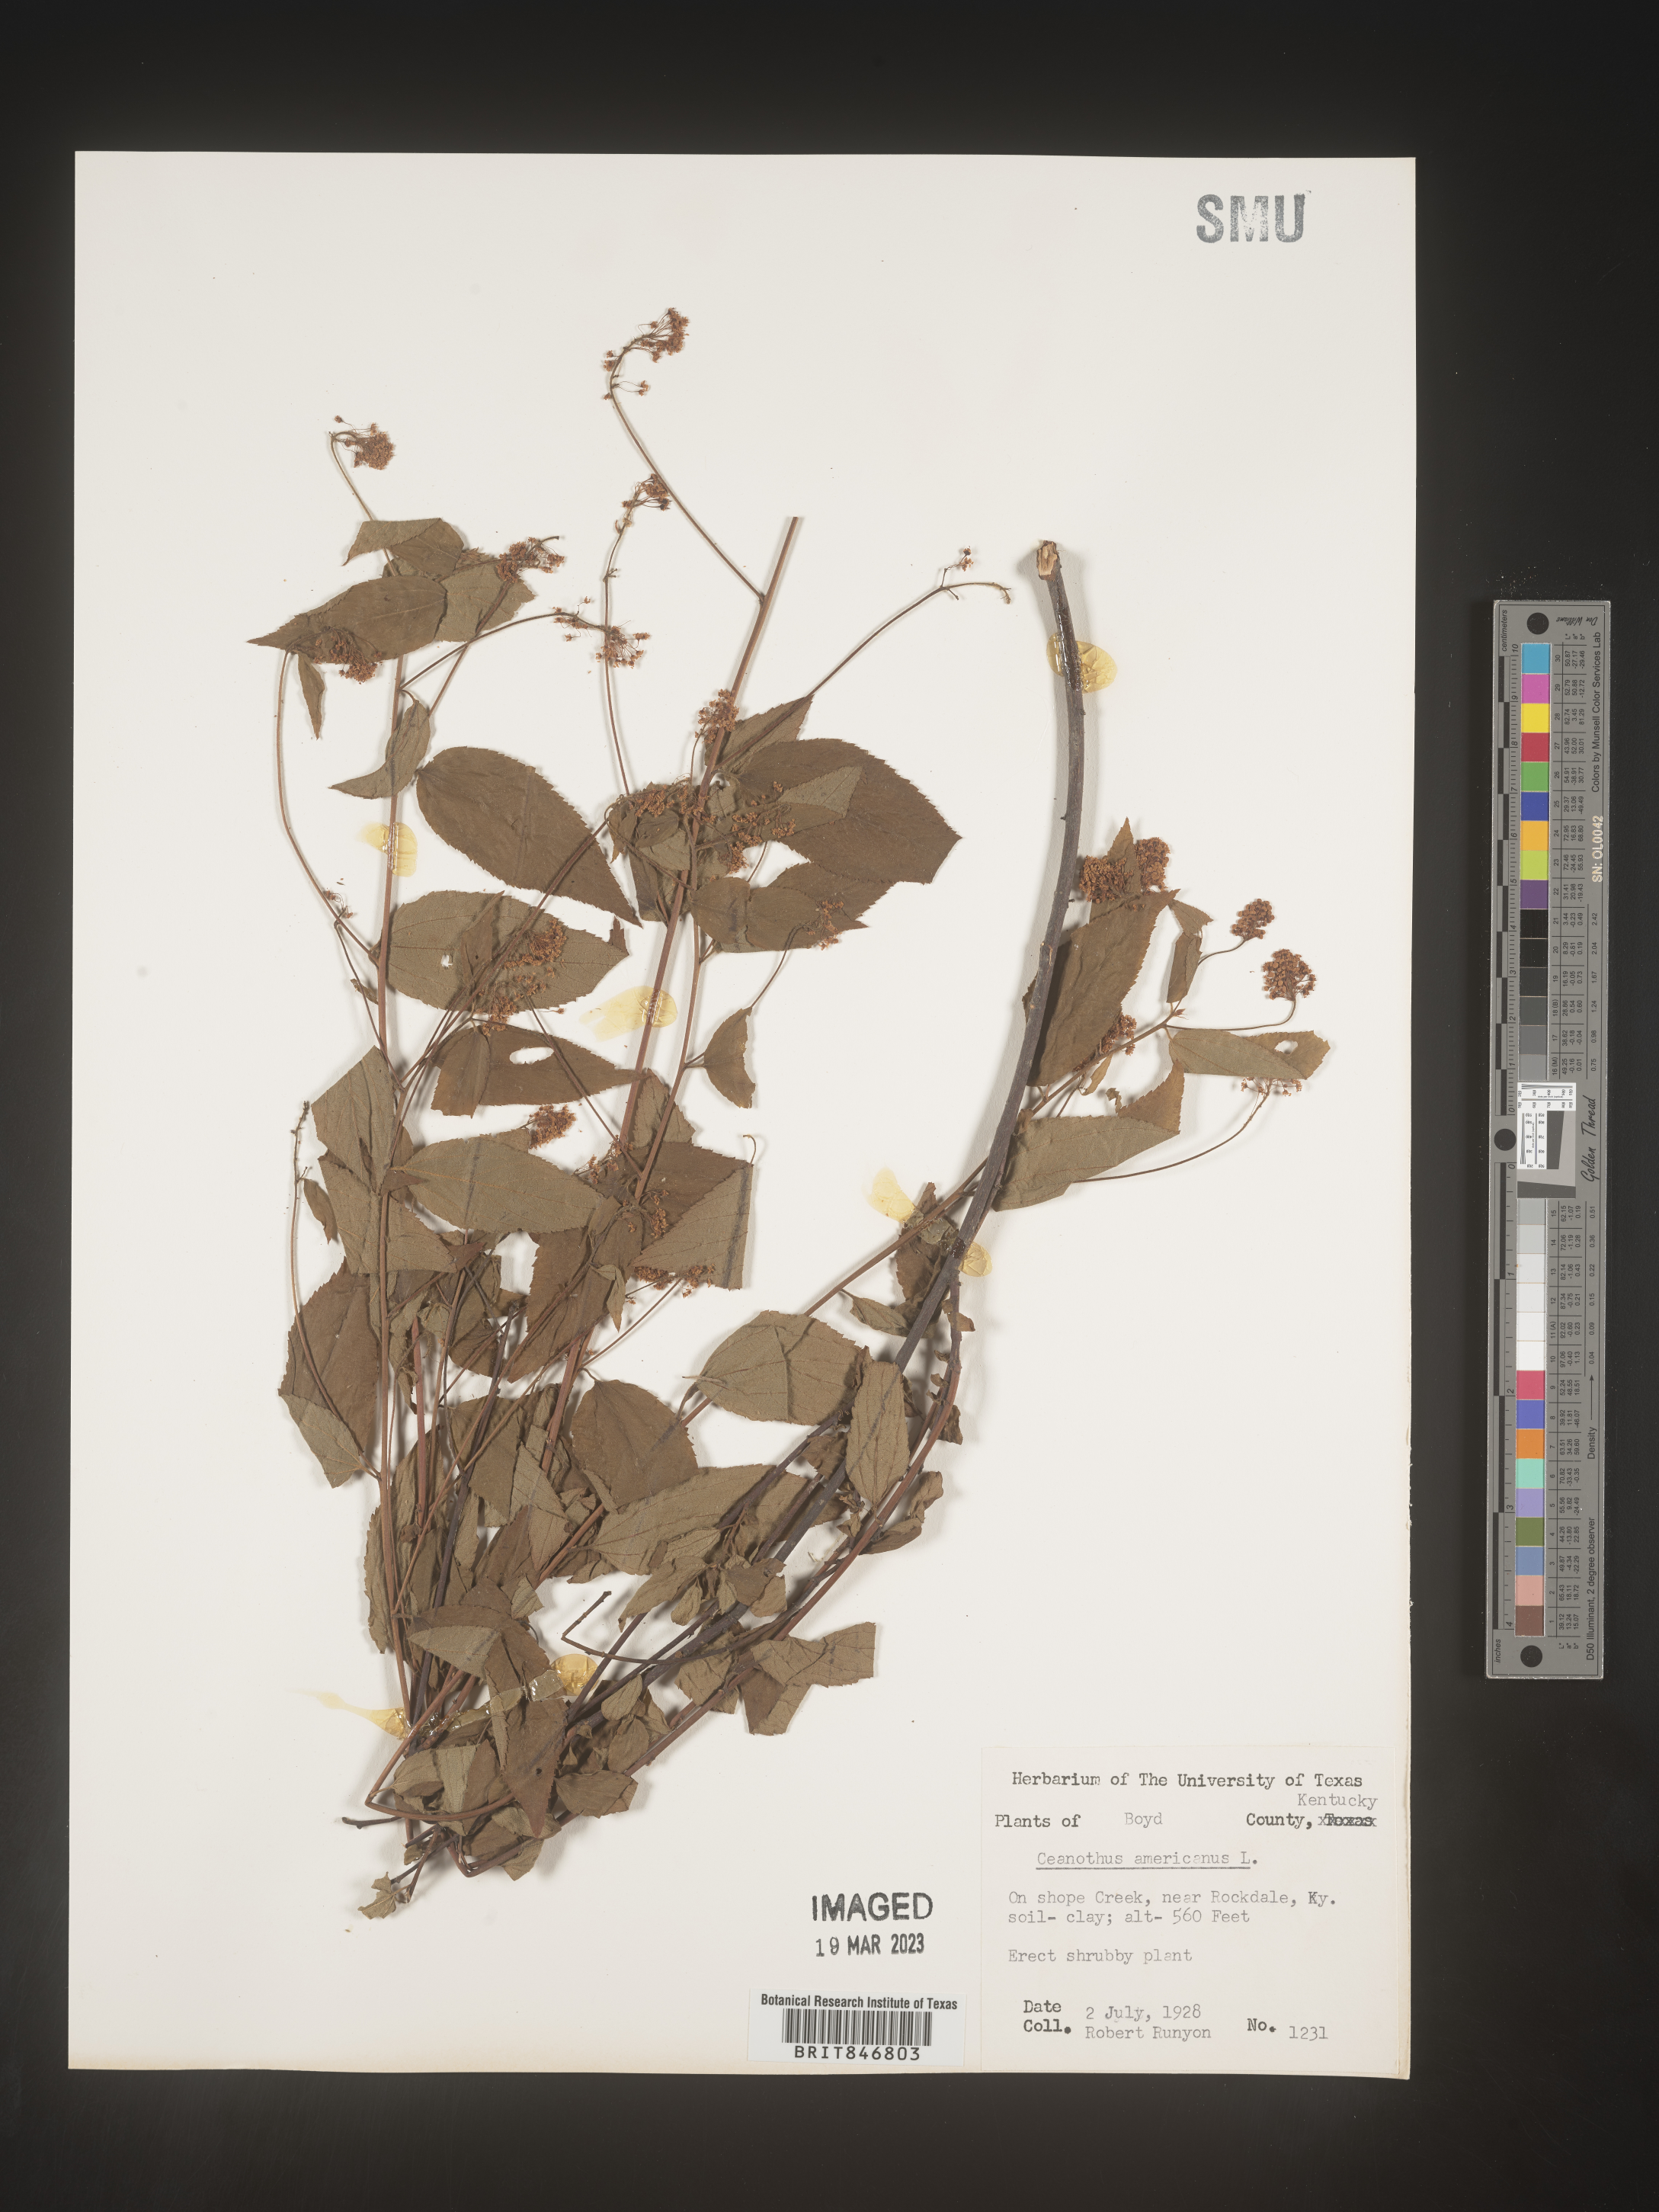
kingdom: Plantae
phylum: Tracheophyta
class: Magnoliopsida
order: Rosales
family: Rhamnaceae
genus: Ceanothus
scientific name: Ceanothus americanus
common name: Redroot
